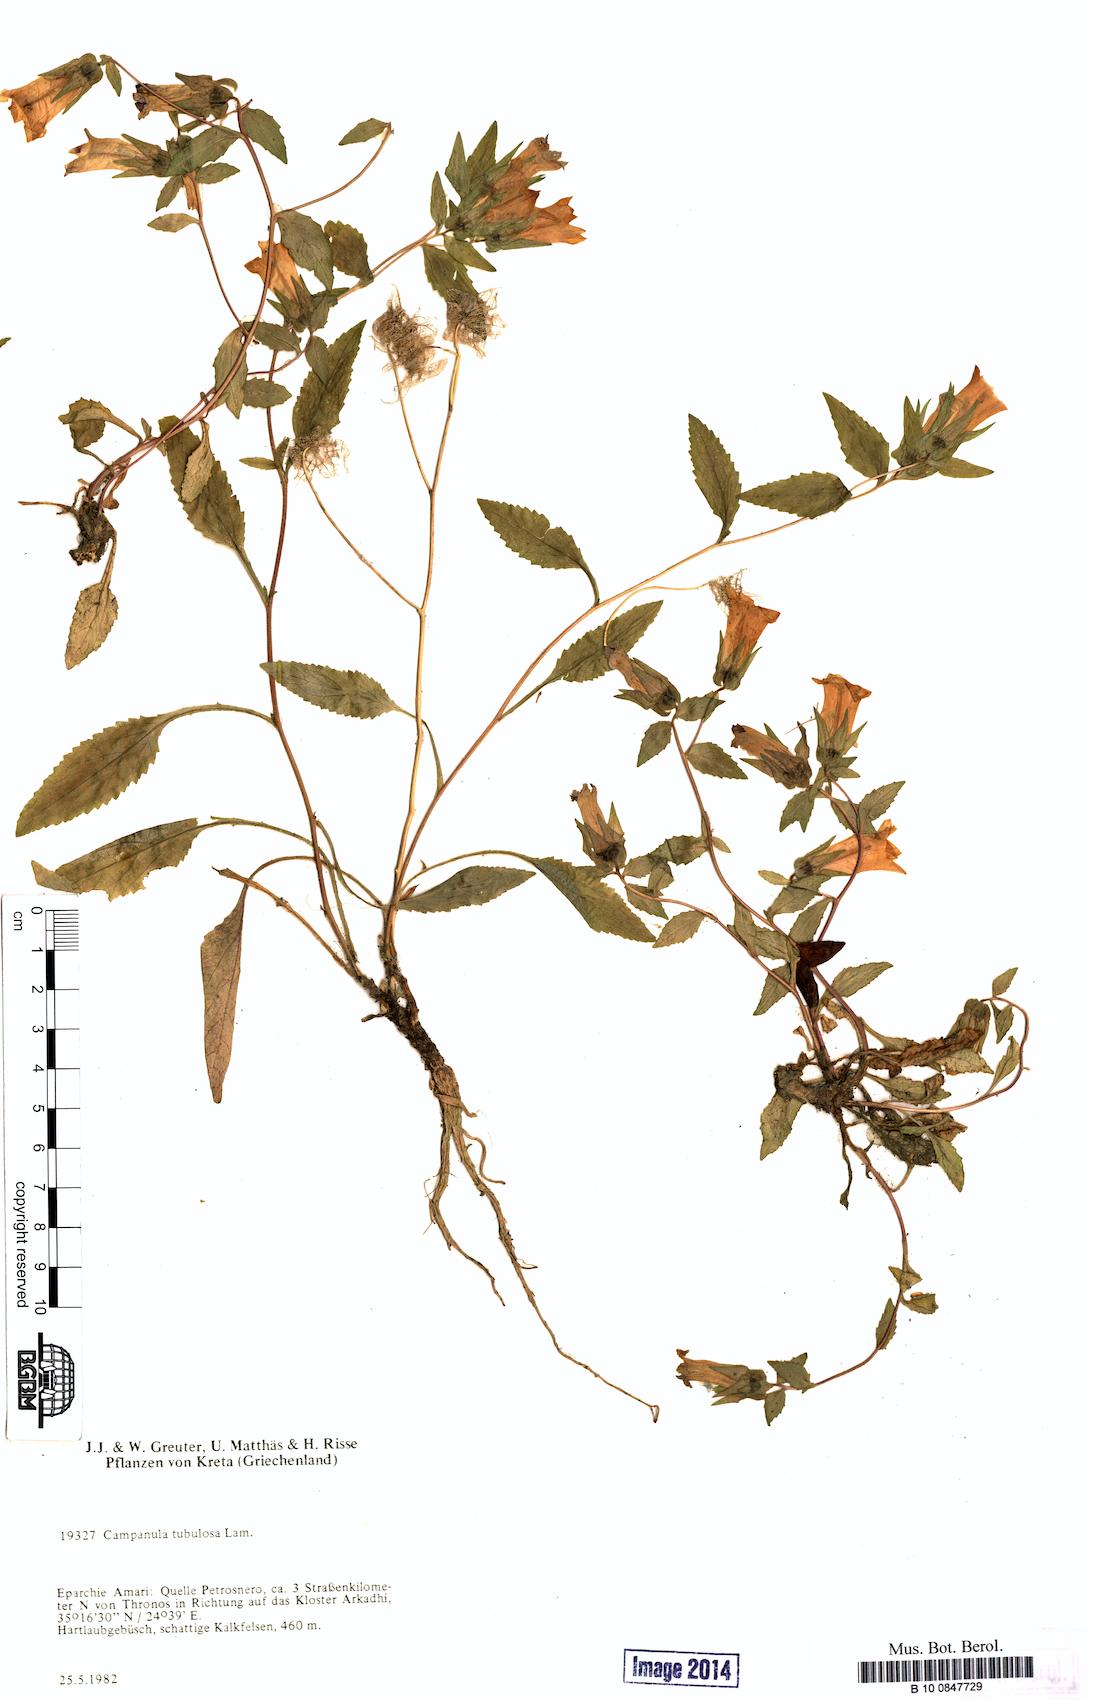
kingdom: Plantae
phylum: Tracheophyta
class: Magnoliopsida
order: Asterales
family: Campanulaceae
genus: Campanula
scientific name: Campanula tubulosa
